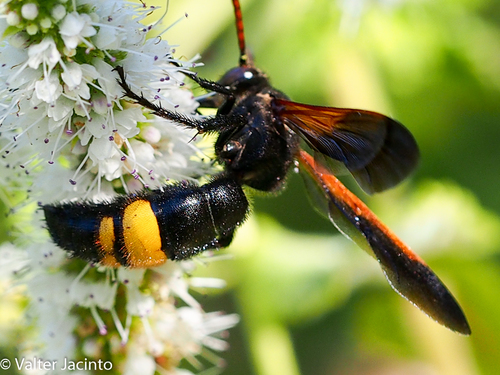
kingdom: Animalia
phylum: Arthropoda
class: Insecta
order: Hymenoptera
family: Scoliidae
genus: Scolia
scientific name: Scolia erythrocephala
